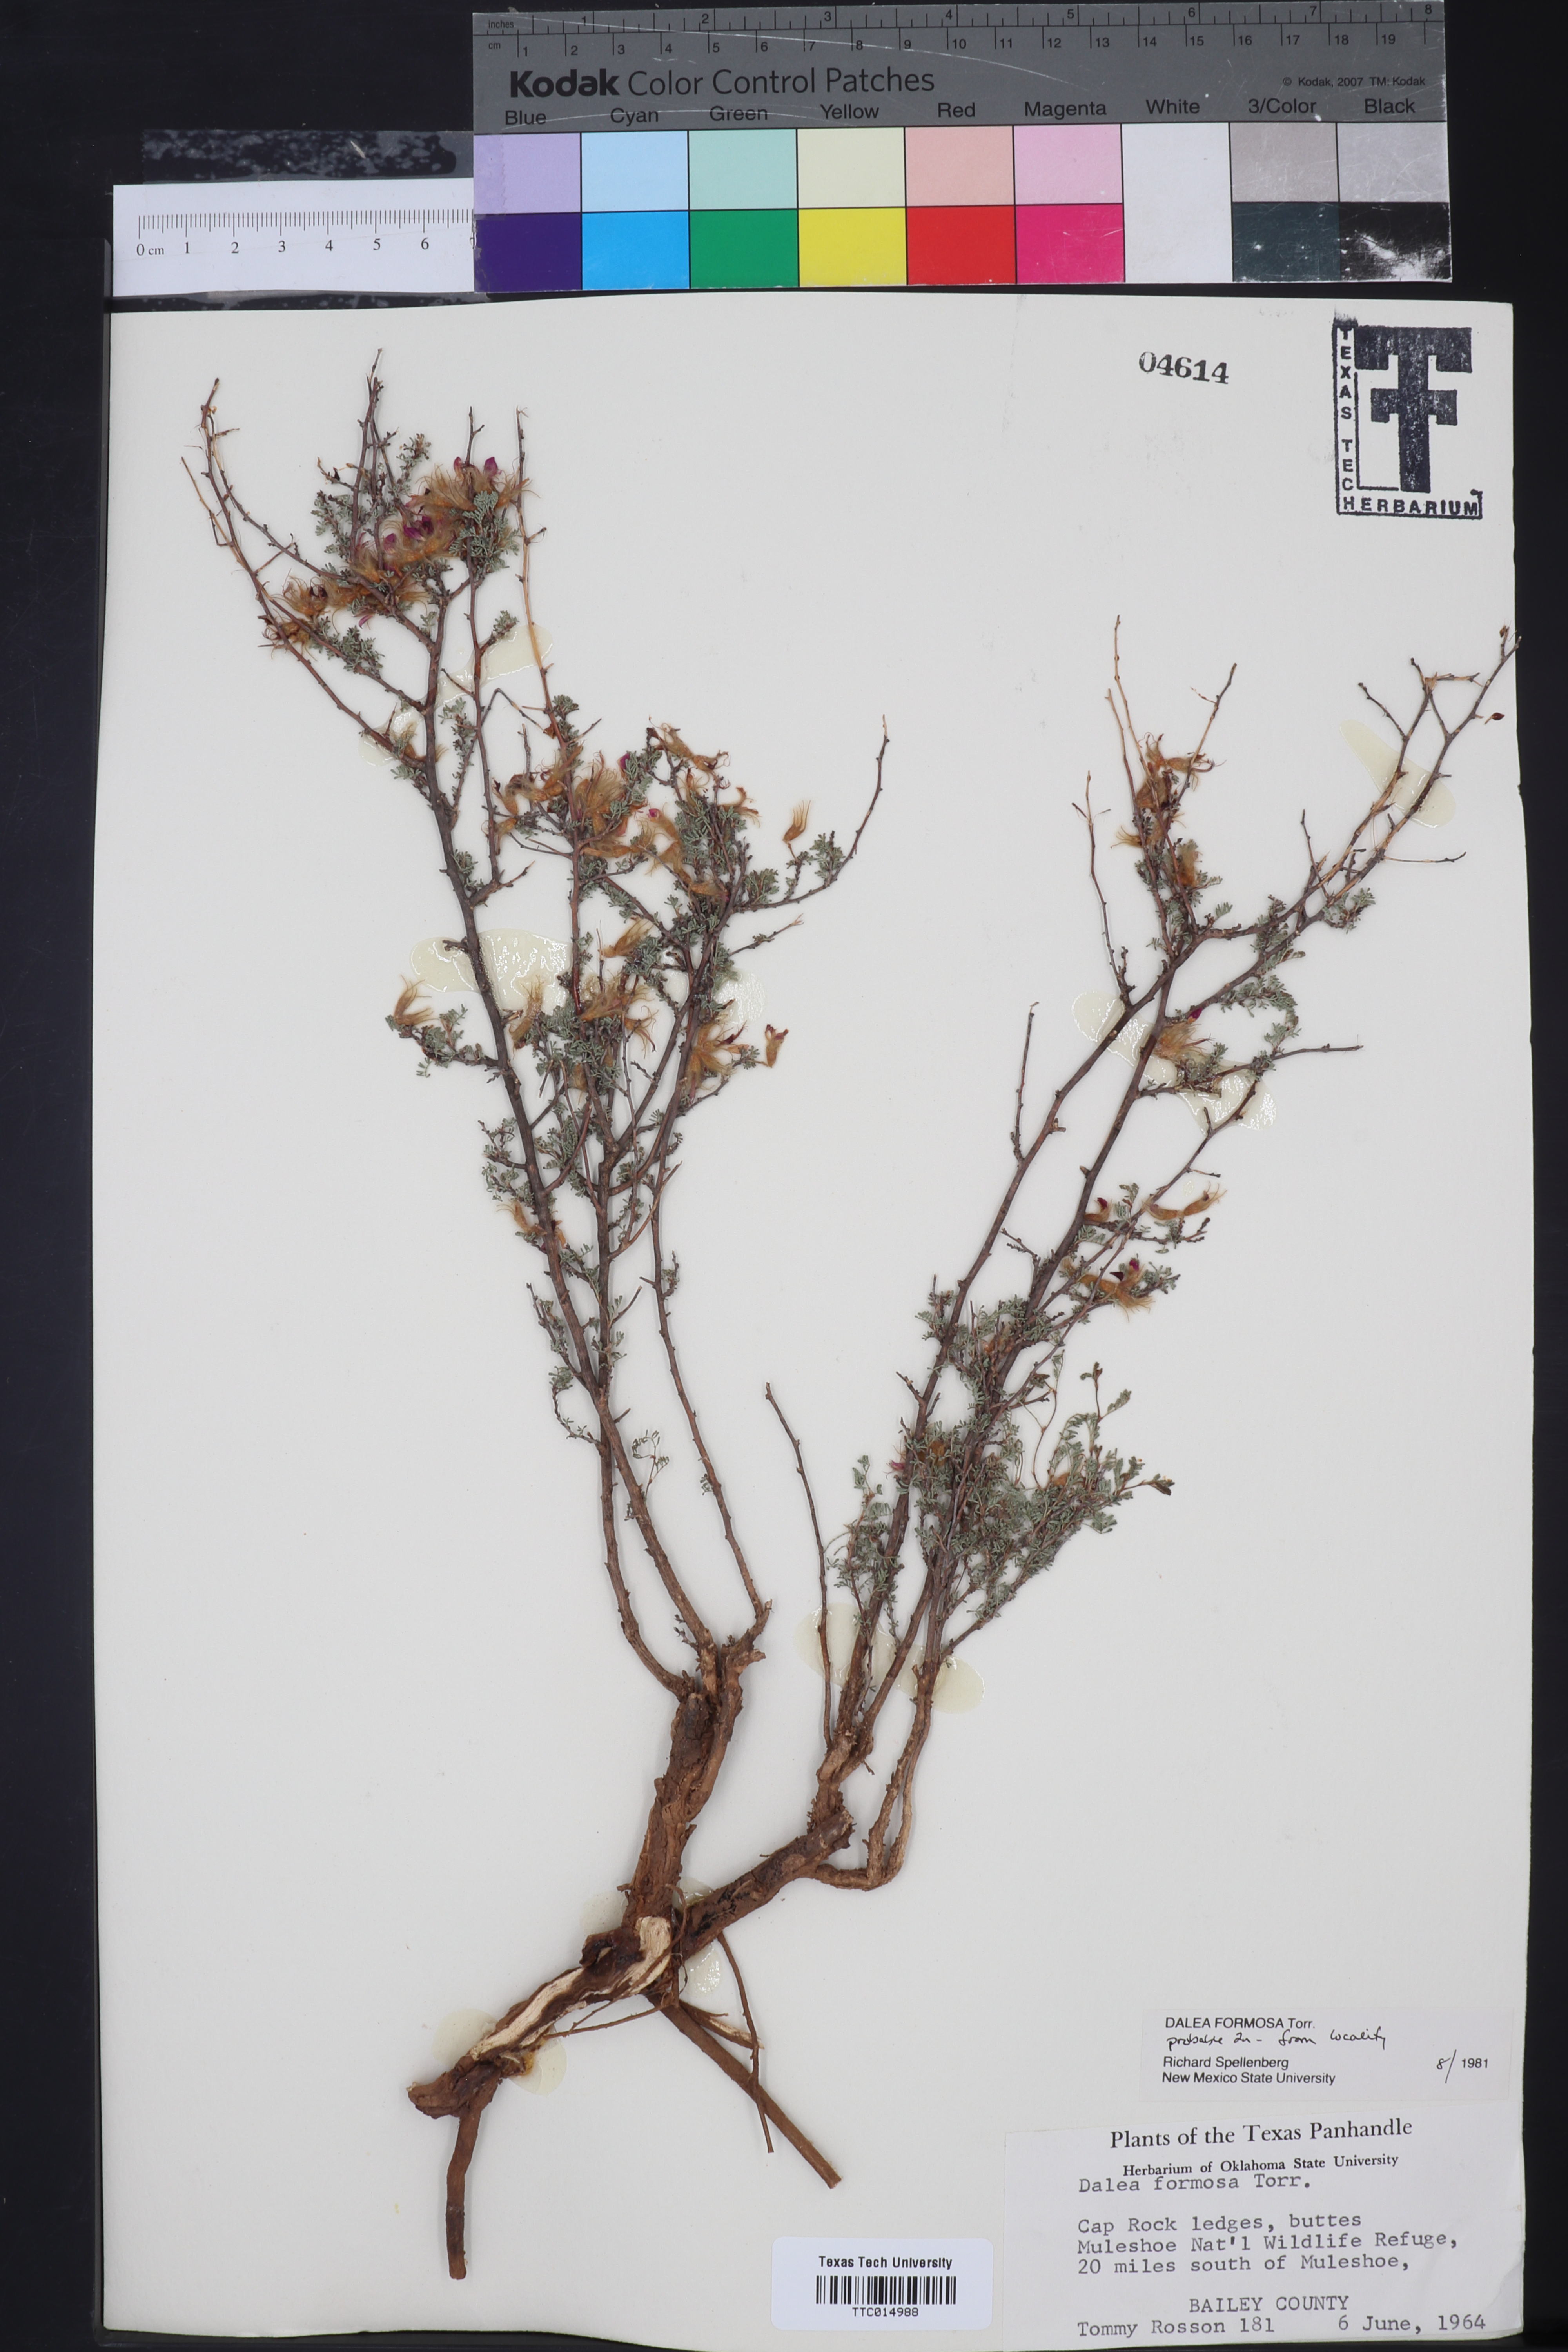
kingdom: Plantae
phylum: Tracheophyta
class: Magnoliopsida
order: Fabales
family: Fabaceae
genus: Dalea
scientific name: Dalea formosa
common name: Feather-plume dalea
